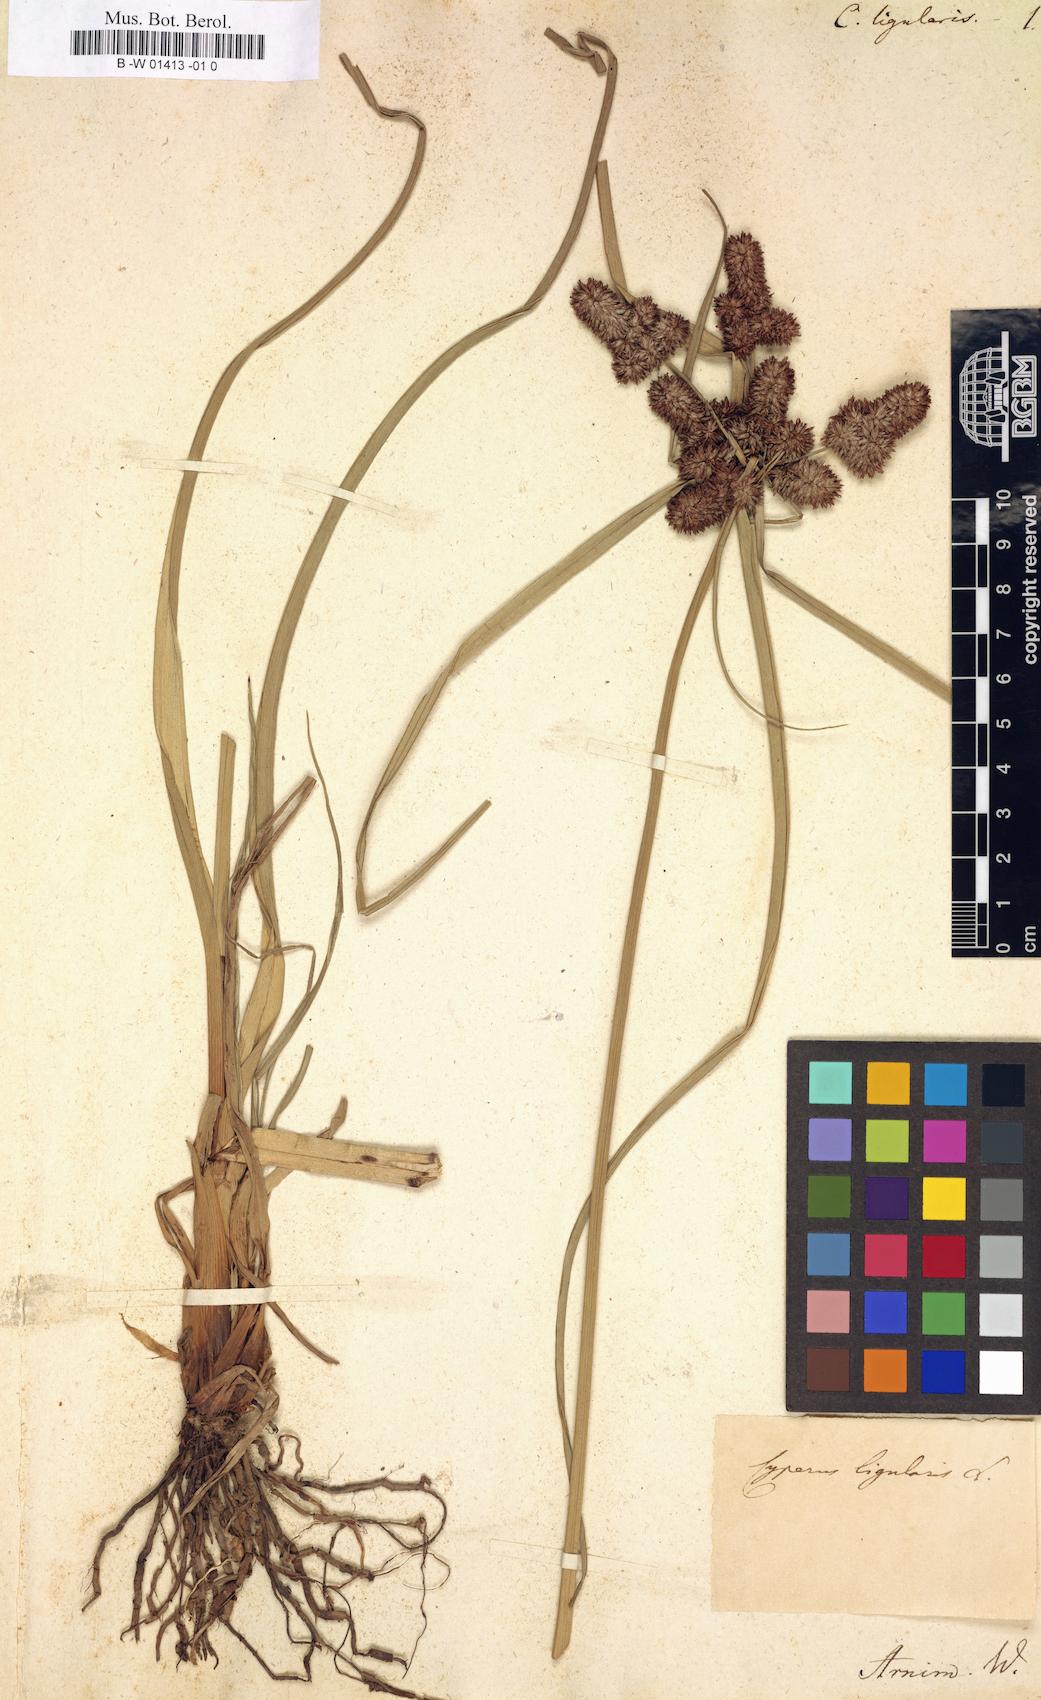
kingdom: Plantae
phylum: Tracheophyta
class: Liliopsida
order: Poales
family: Cyperaceae
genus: Cyperus
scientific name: Cyperus
